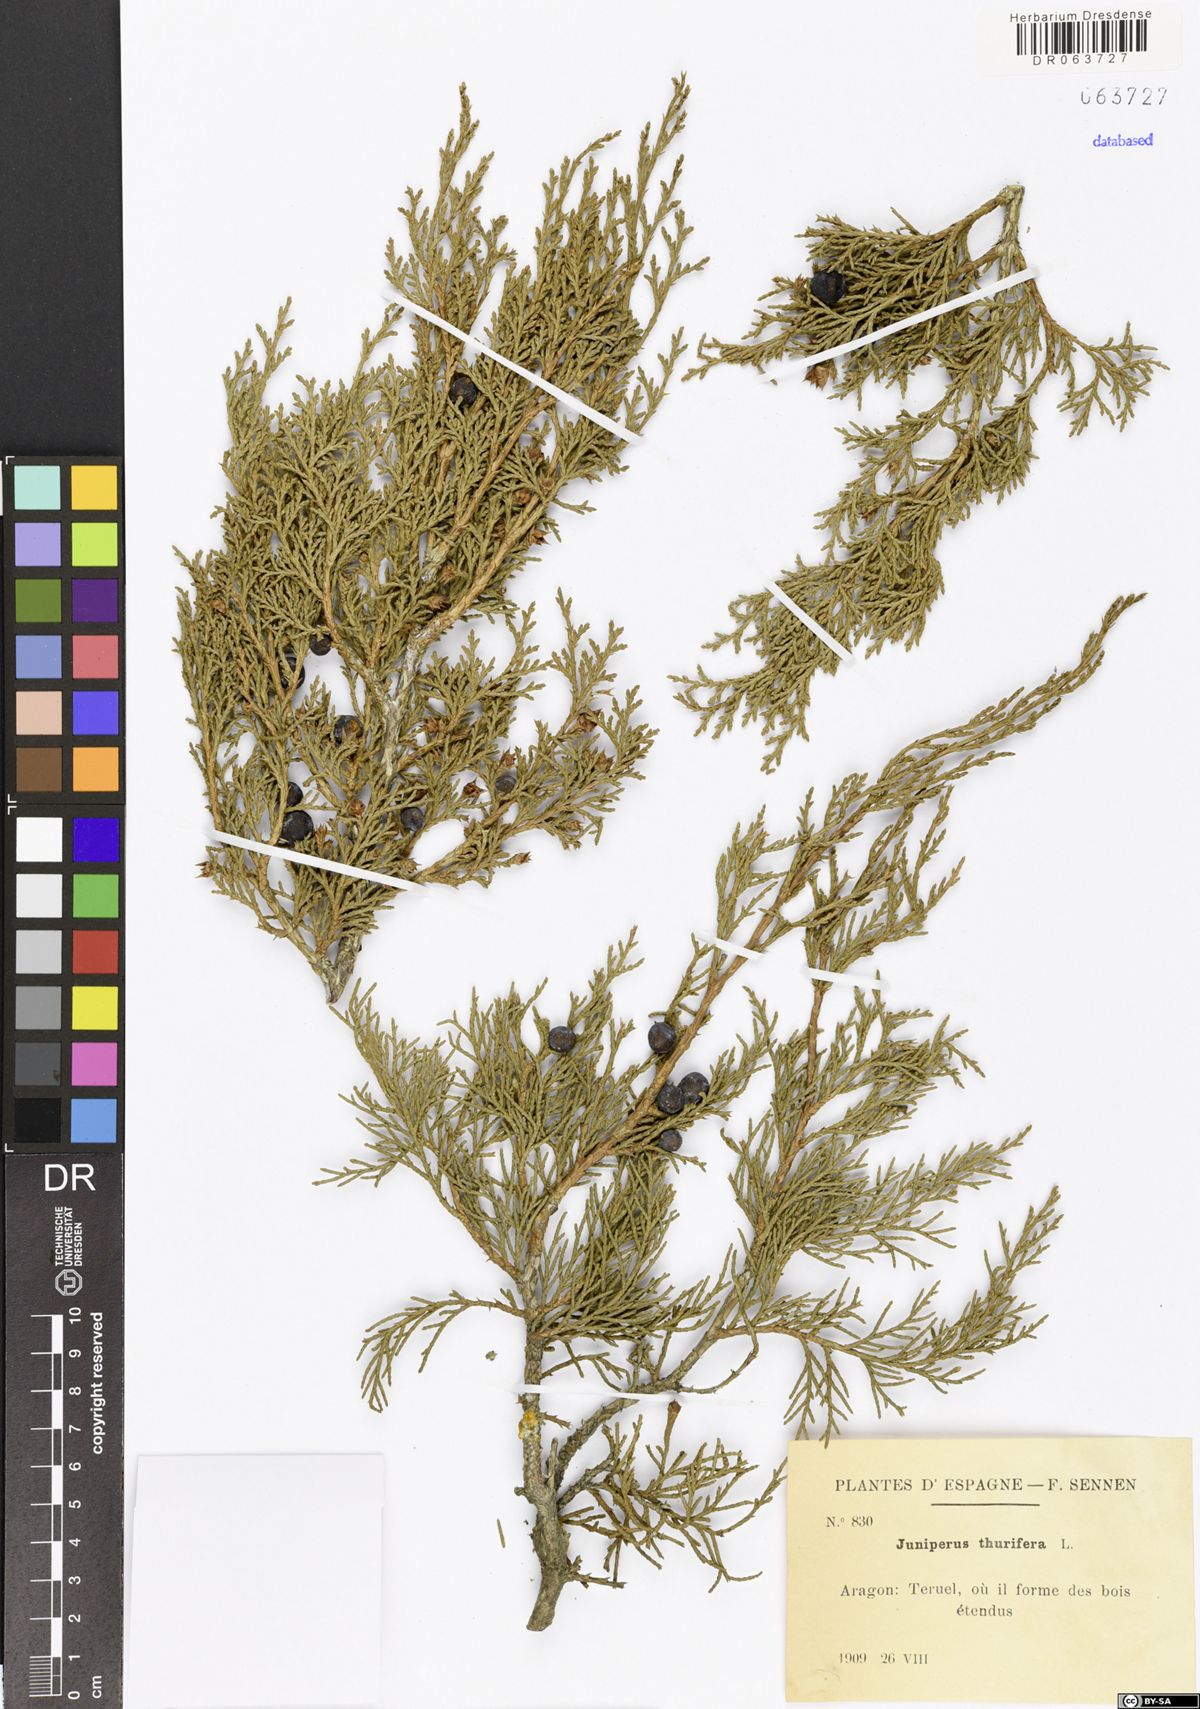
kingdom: Plantae
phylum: Tracheophyta
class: Pinopsida
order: Pinales
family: Cupressaceae
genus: Juniperus
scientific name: Juniperus thurifera
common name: Incense juniper
